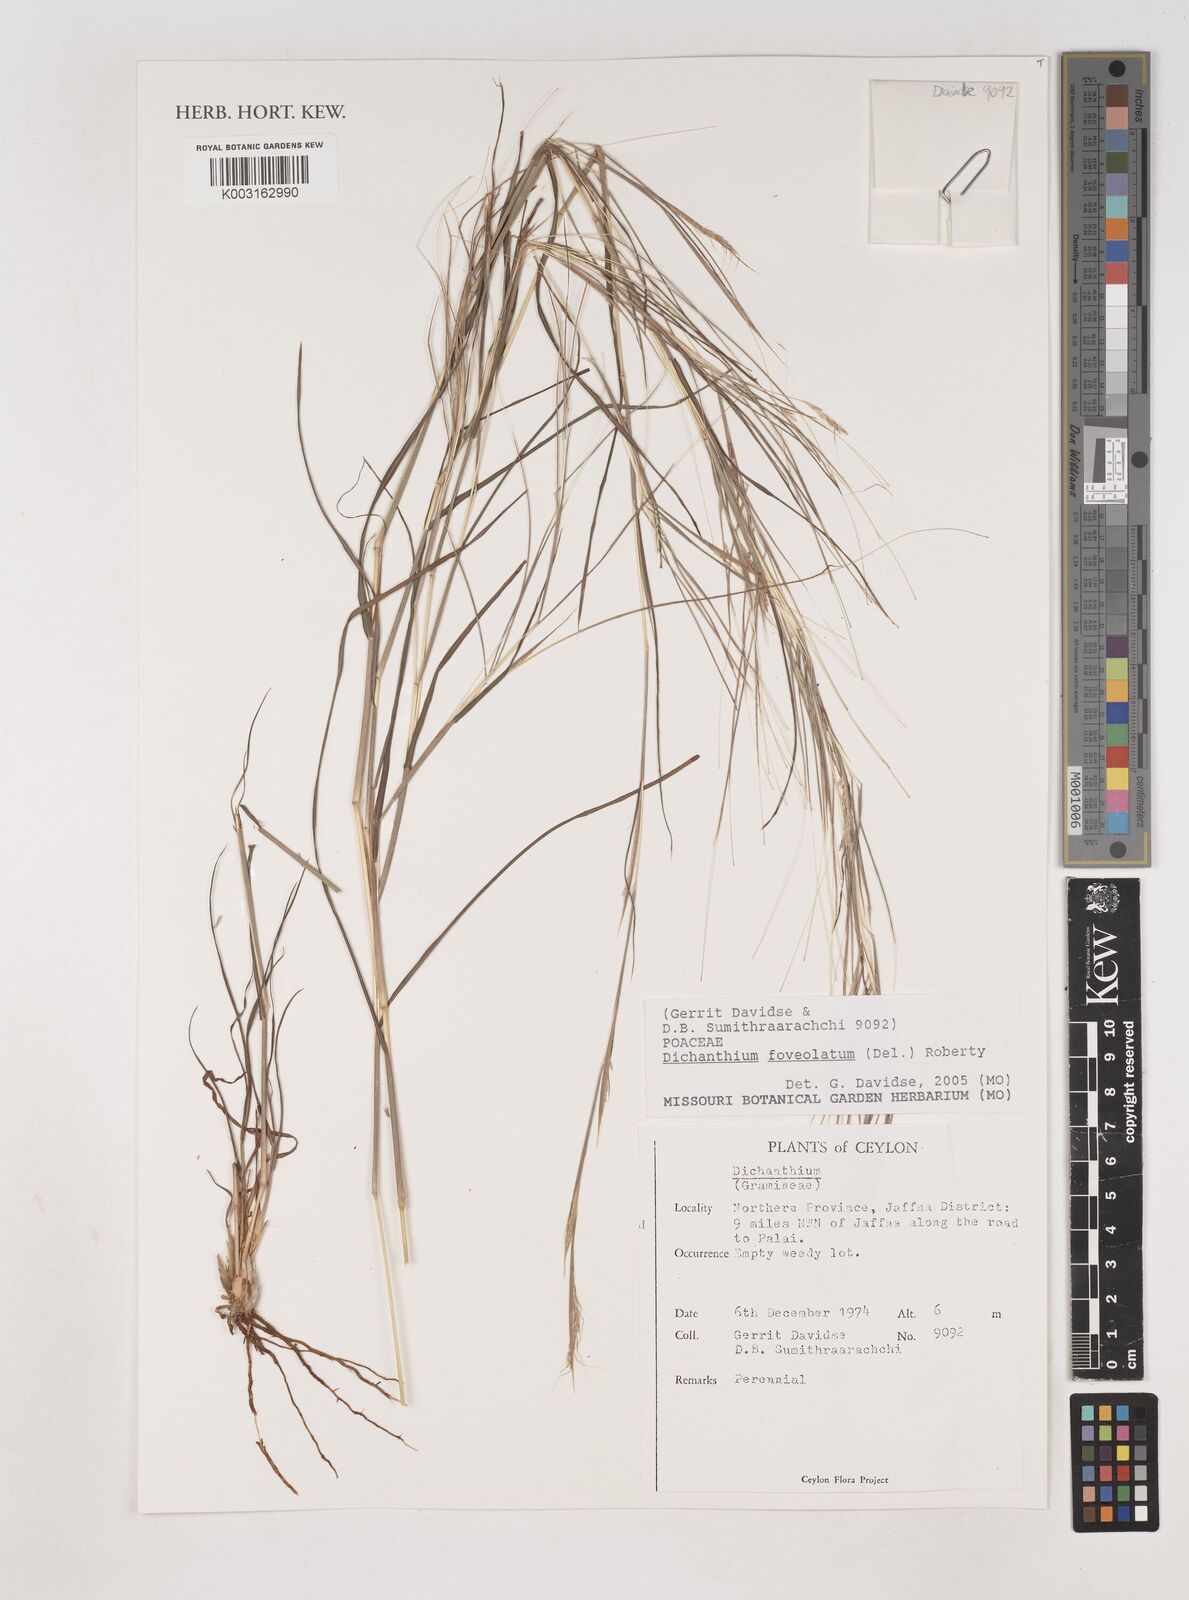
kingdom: Plantae
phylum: Tracheophyta
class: Liliopsida
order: Poales
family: Poaceae
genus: Dichanthium
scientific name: Dichanthium foveolatum
